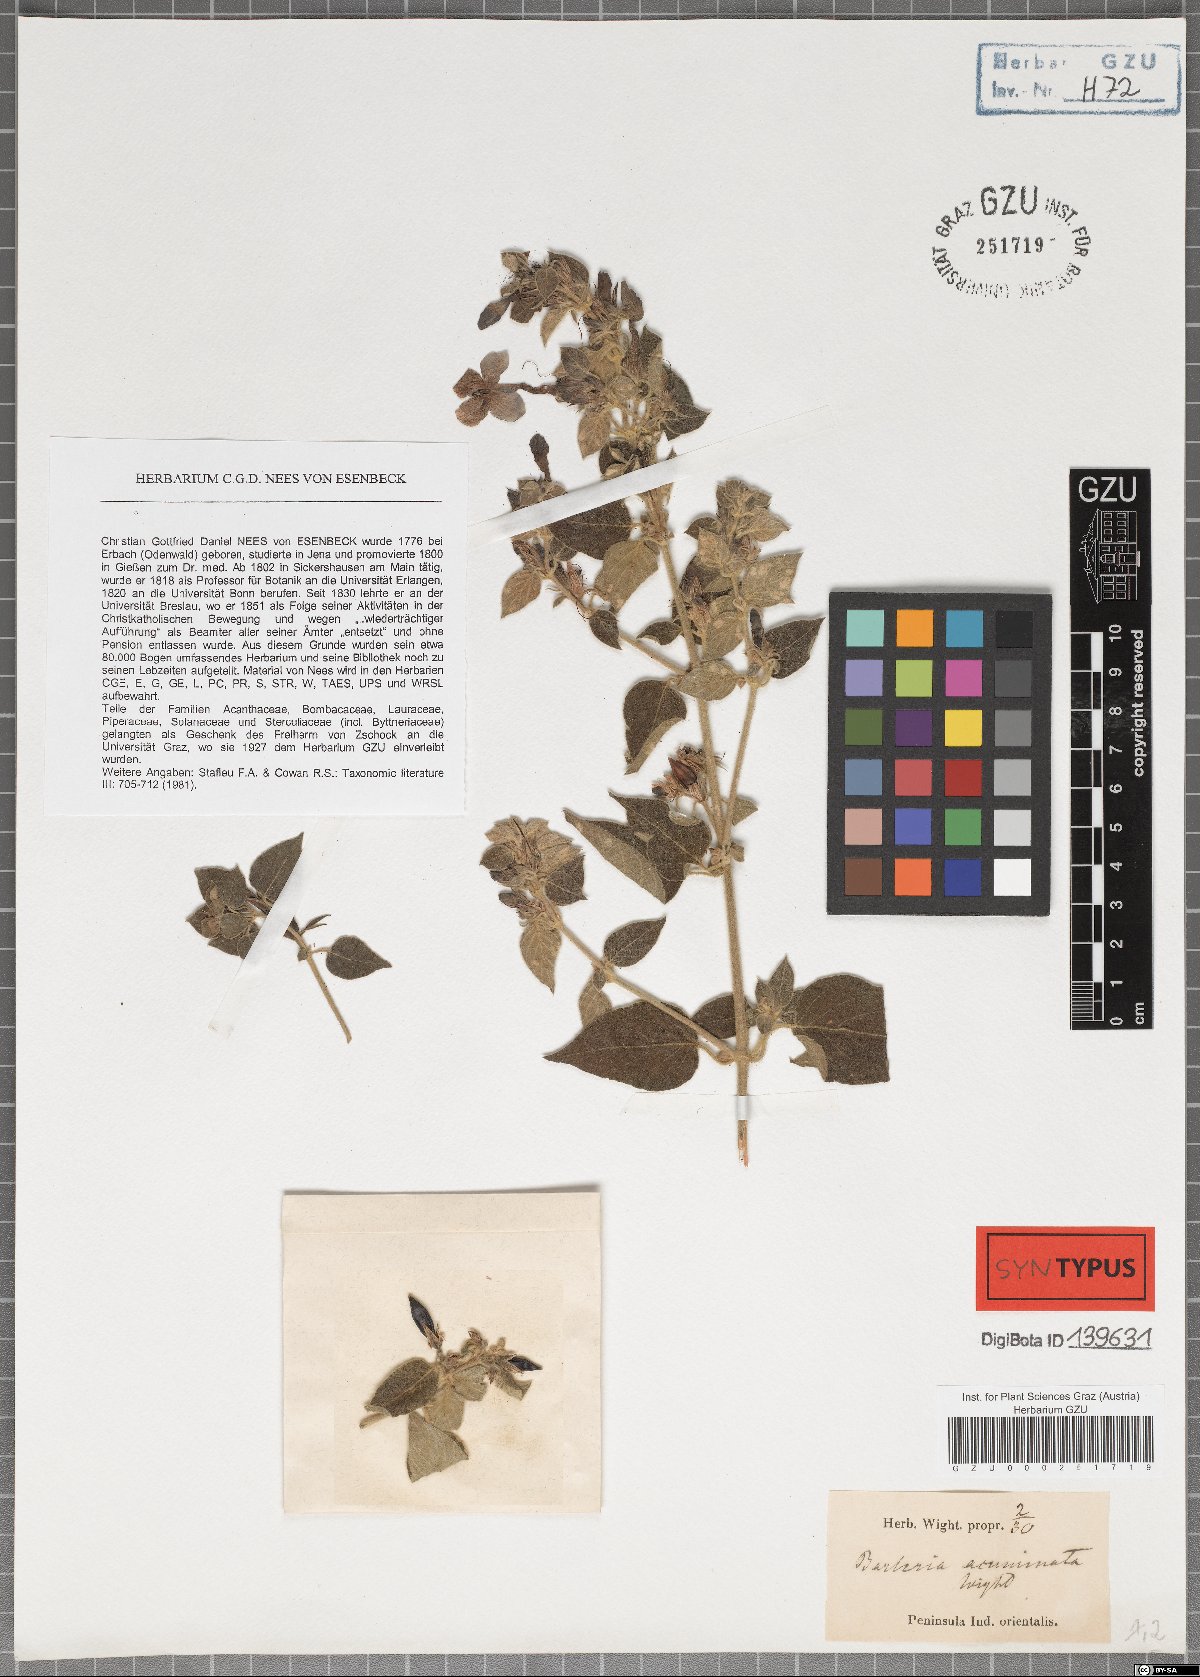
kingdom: Plantae
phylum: Tracheophyta
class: Magnoliopsida
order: Lamiales
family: Acanthaceae
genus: Barleria
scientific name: Barleria acuminata
